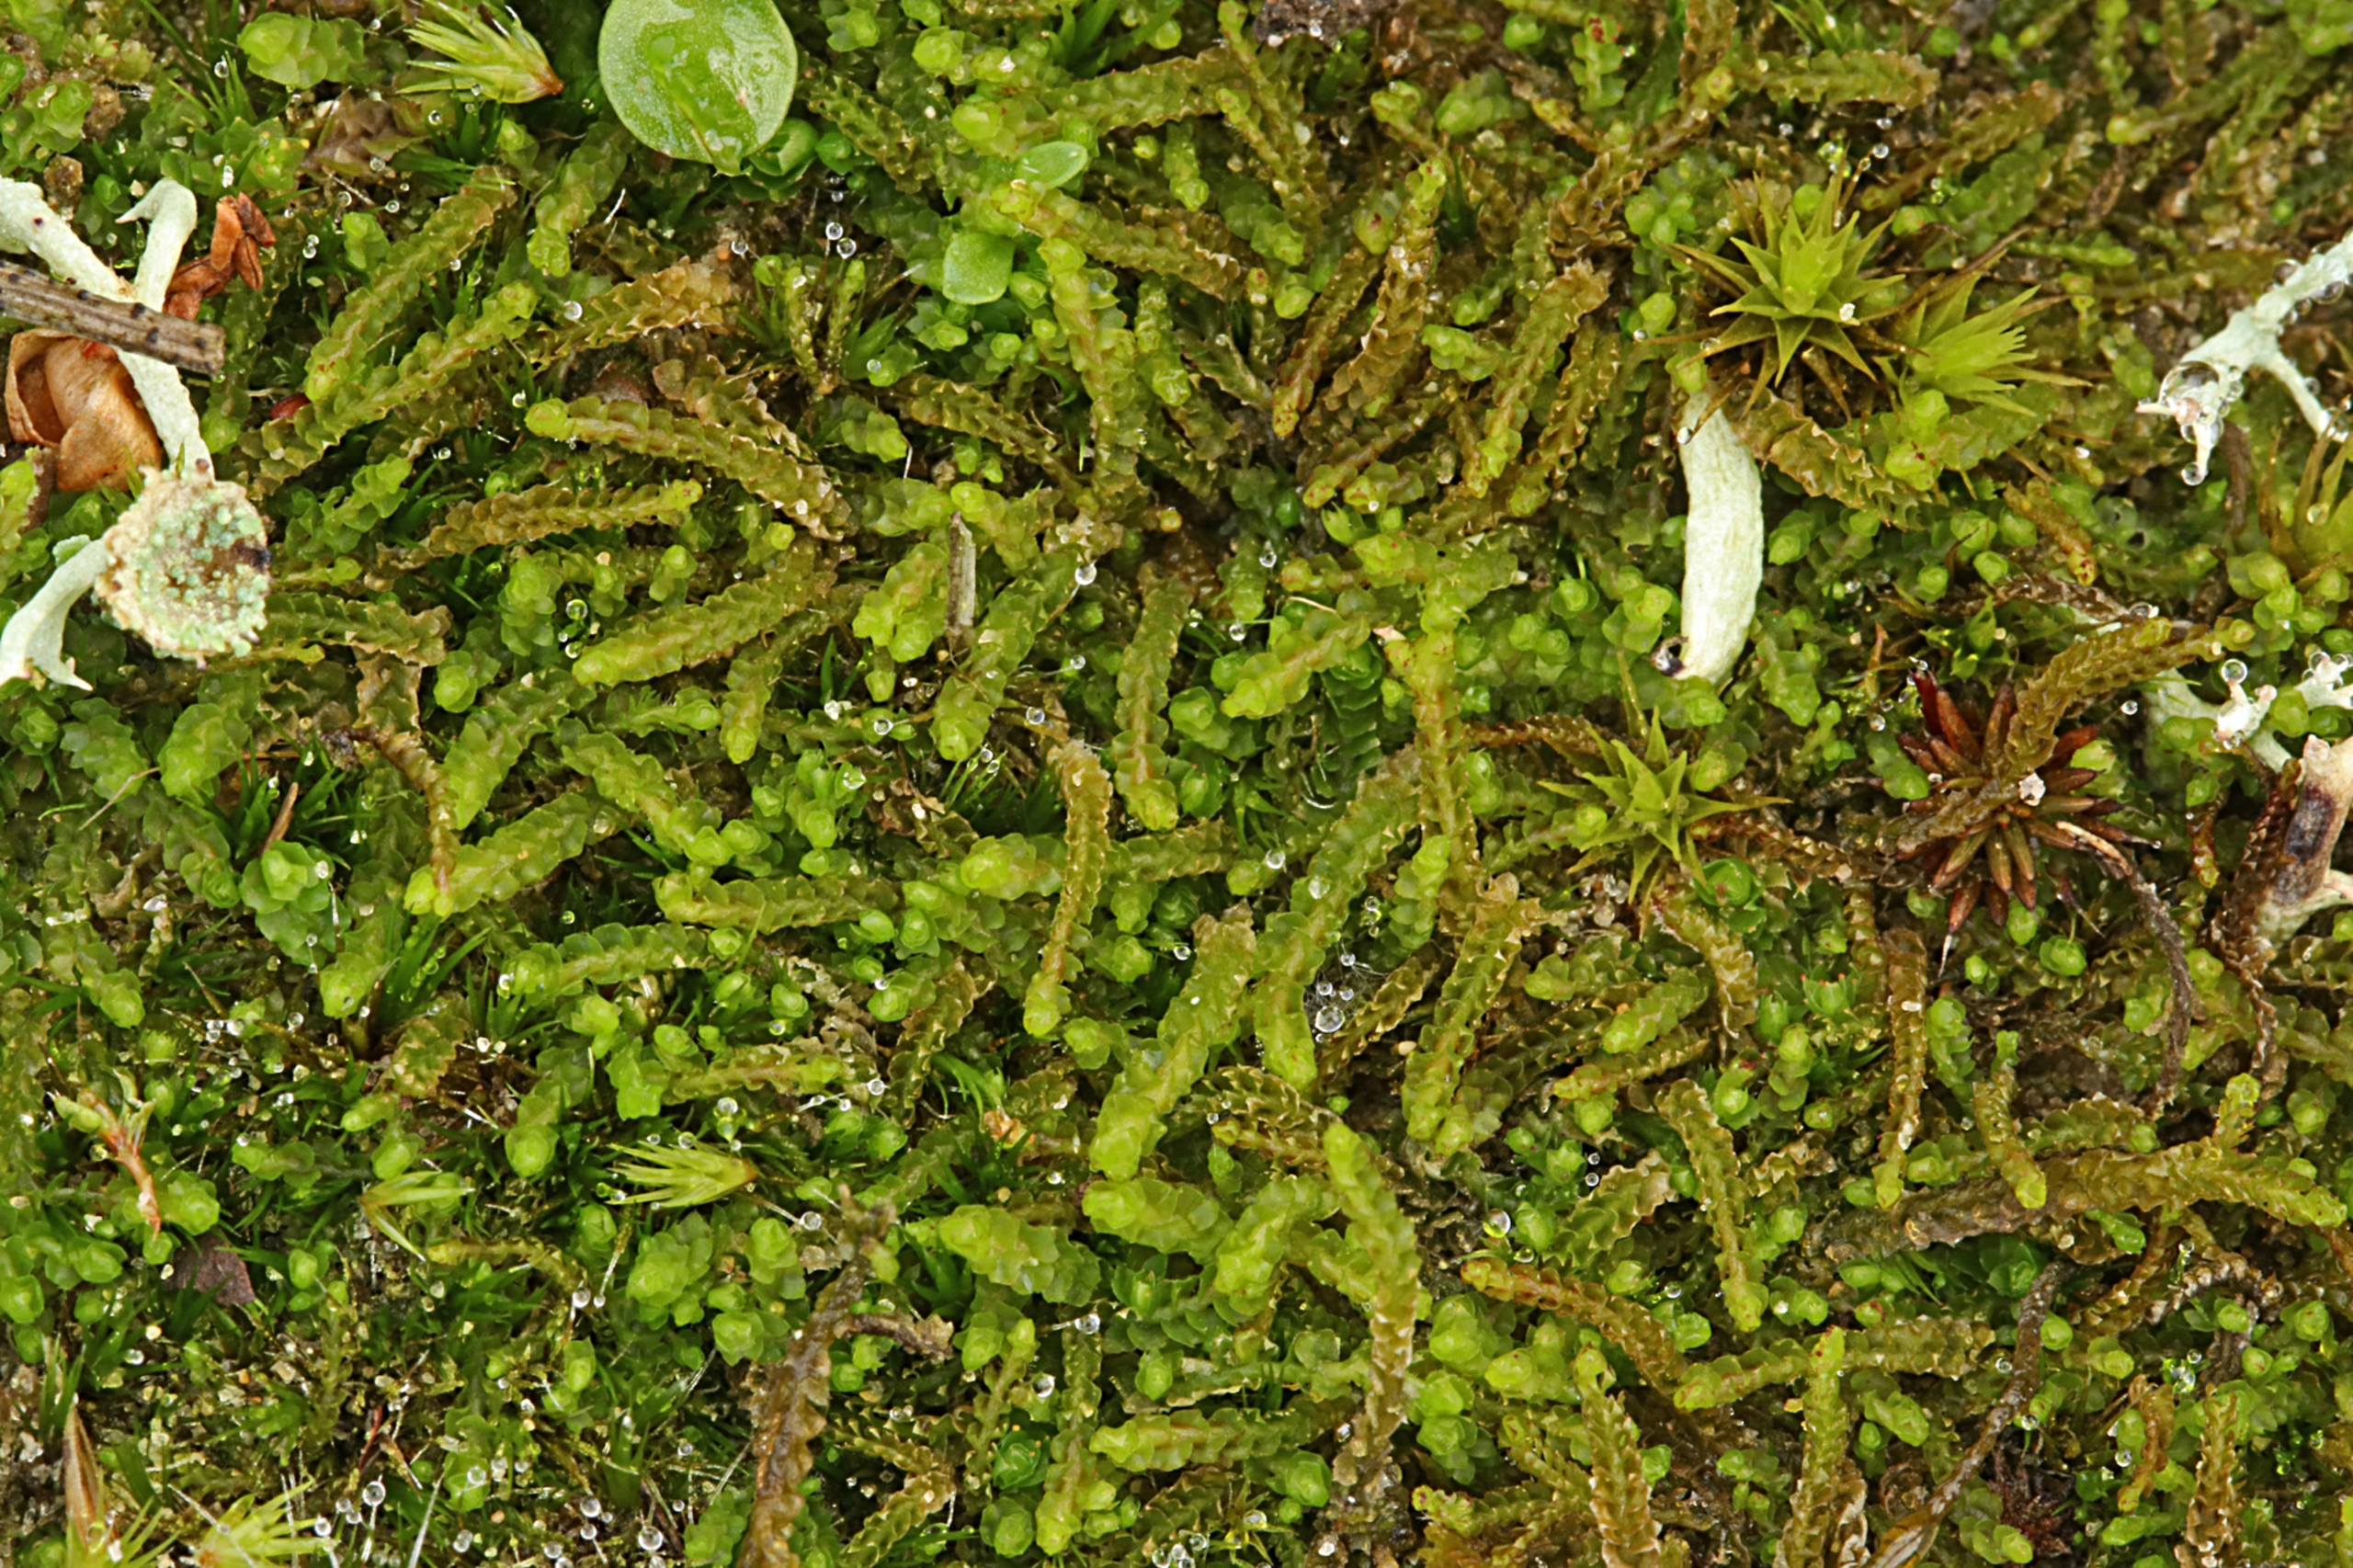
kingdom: Plantae
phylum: Marchantiophyta
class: Jungermanniopsida
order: Jungermanniales
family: Anastrophyllaceae
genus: Barbilophozia
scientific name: Barbilophozia hatcheri
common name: Spidsfliget flerfligmos
